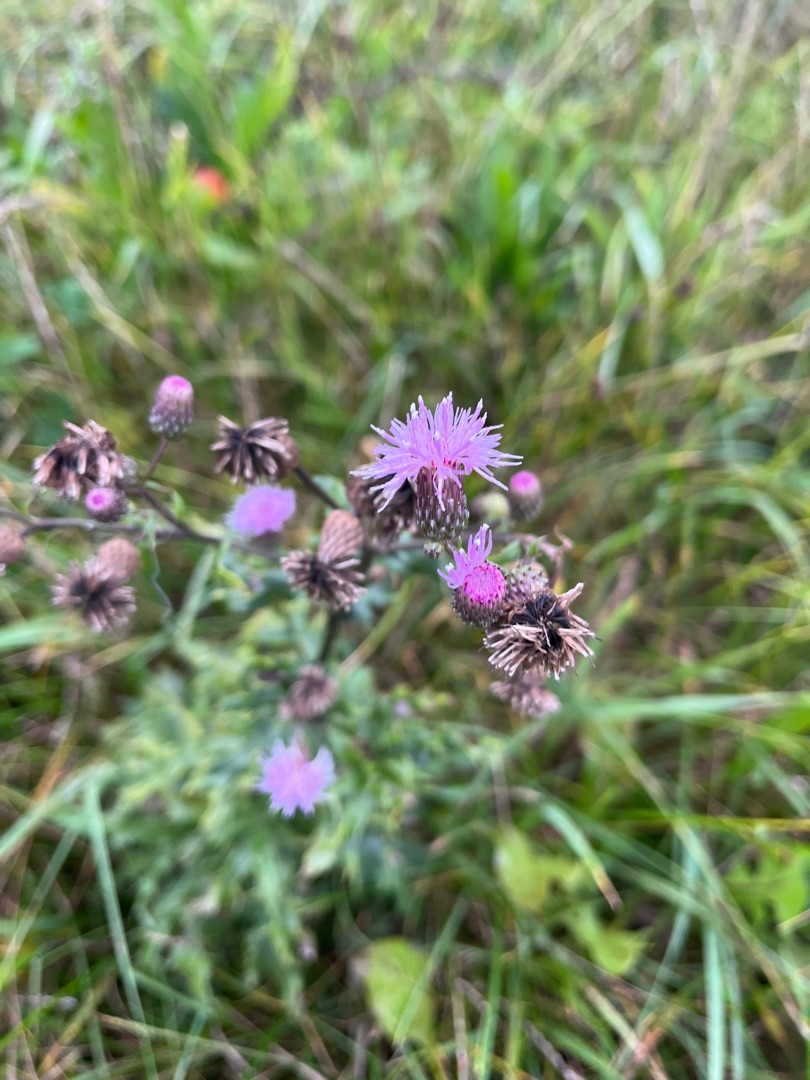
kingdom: Plantae
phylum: Tracheophyta
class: Magnoliopsida
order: Asterales
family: Asteraceae
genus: Cirsium
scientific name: Cirsium arvense
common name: Ager-tidsel
